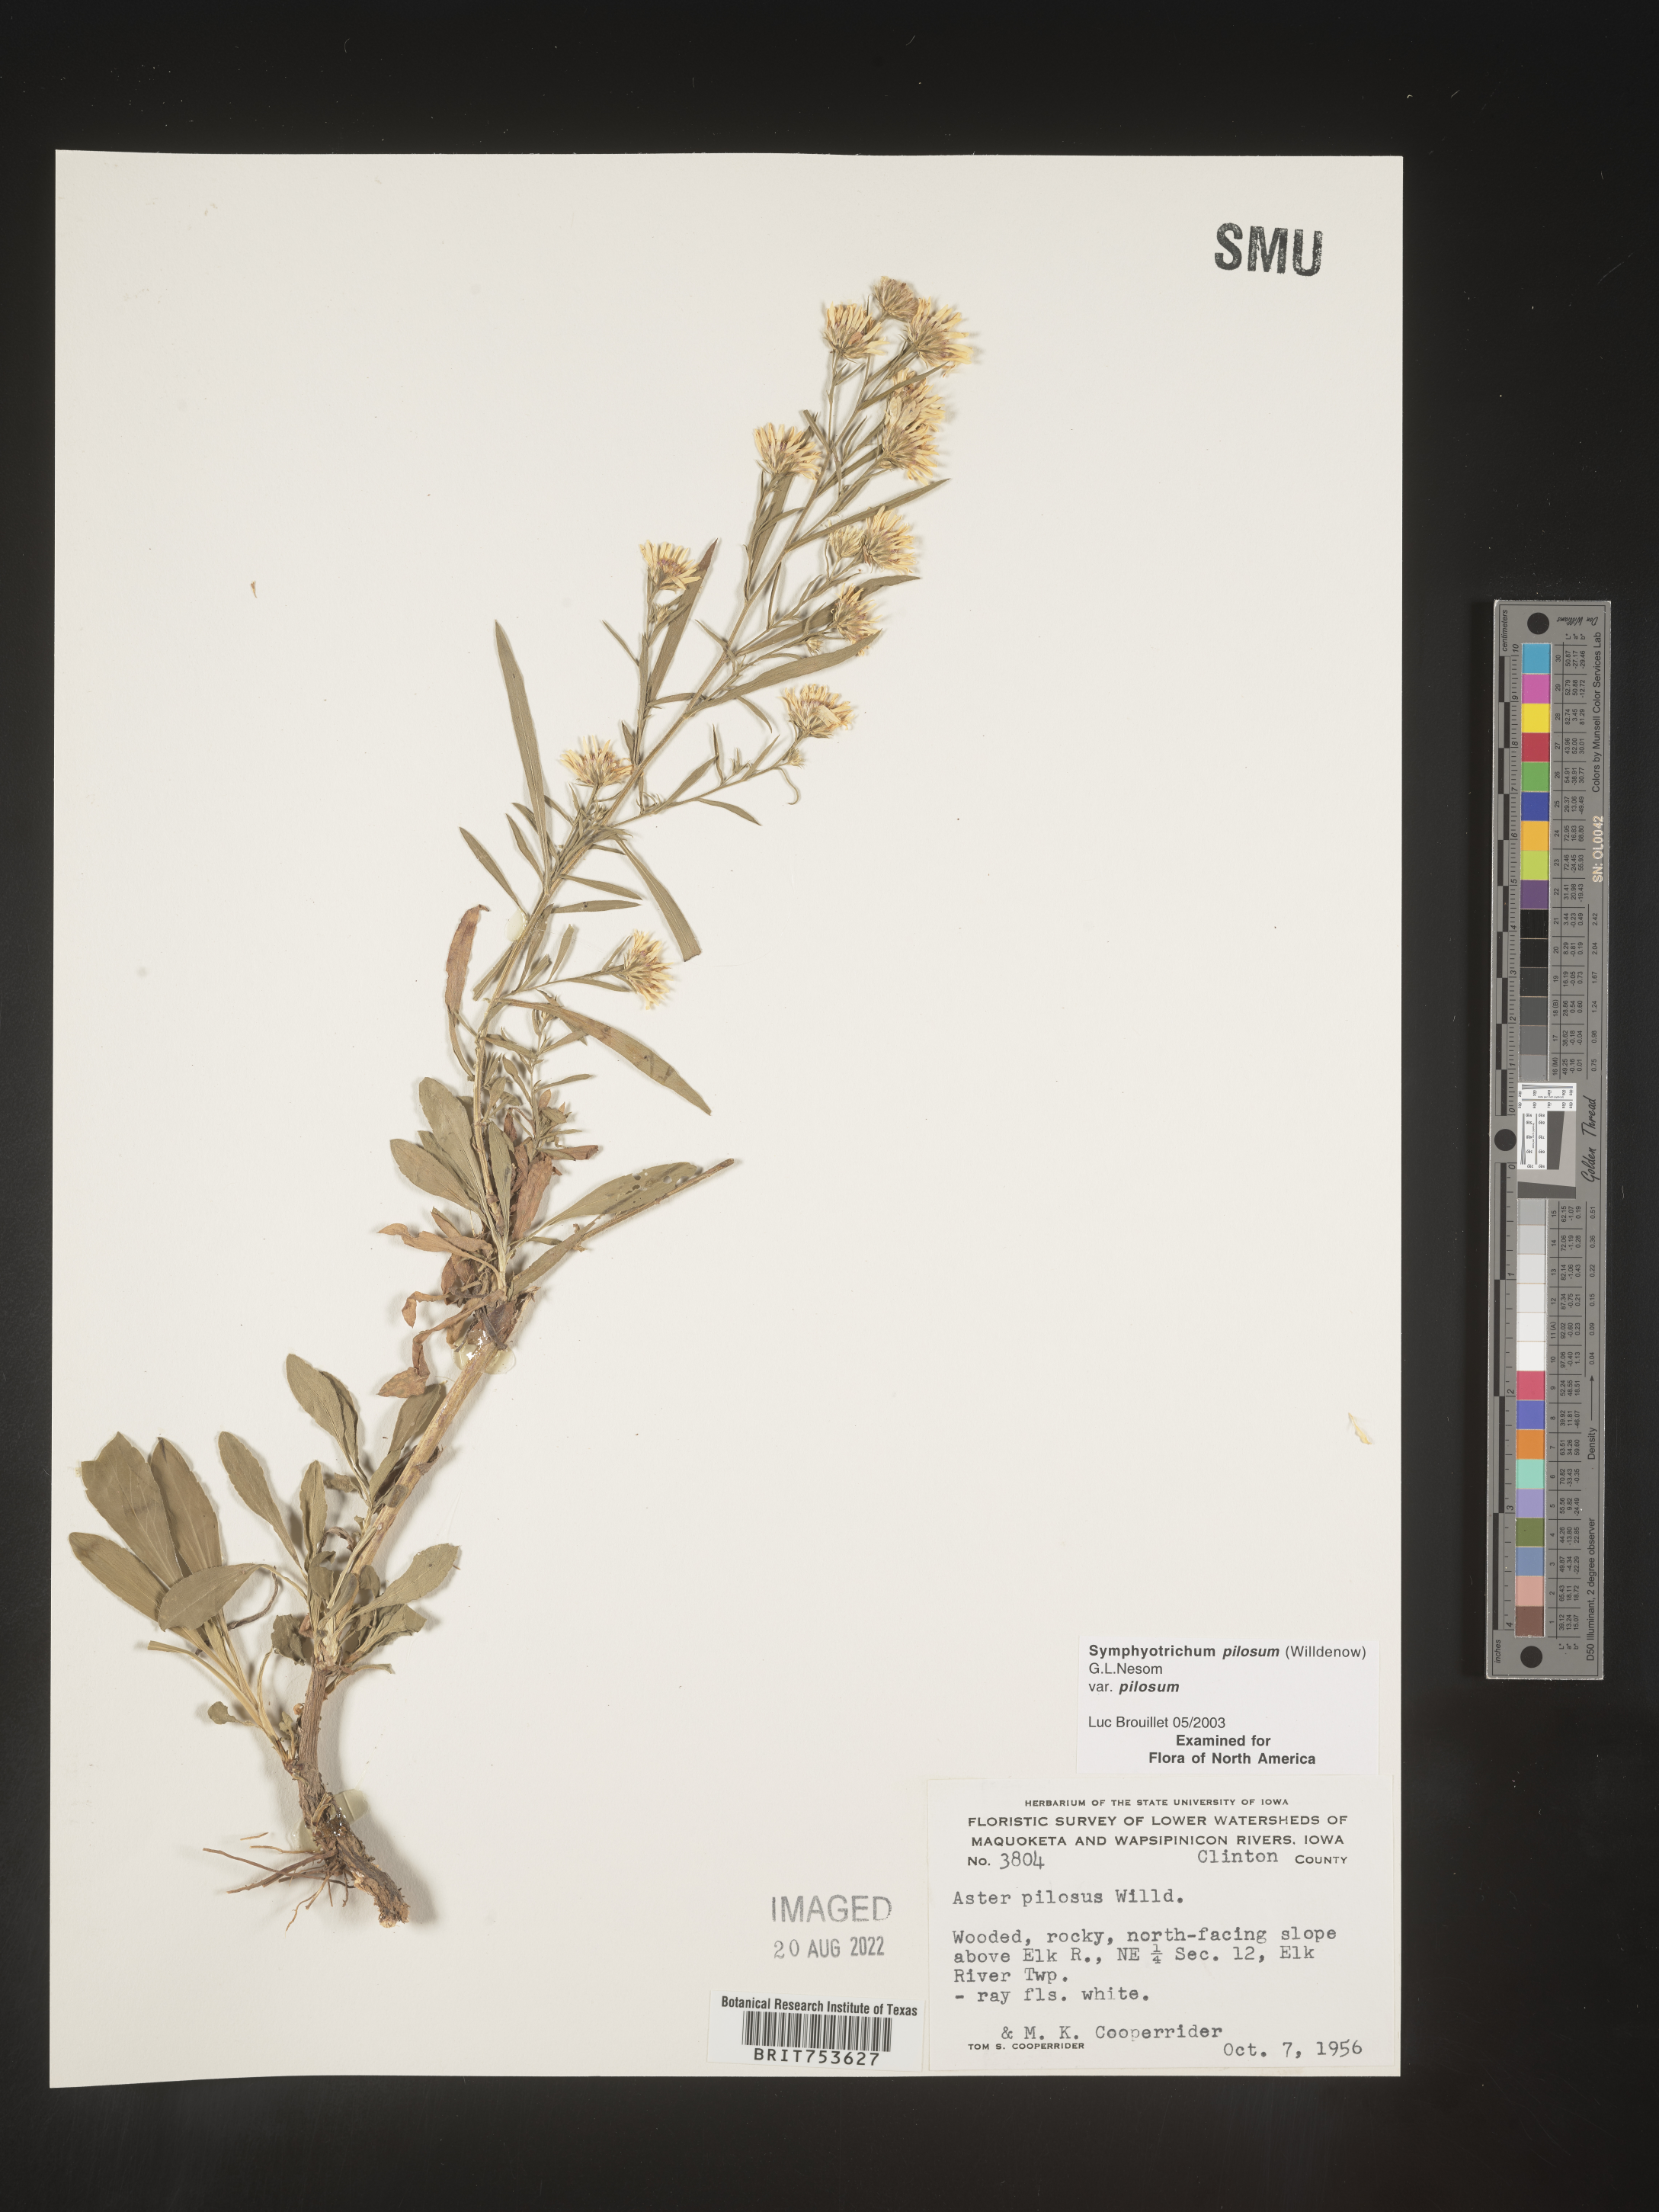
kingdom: Plantae
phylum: Tracheophyta
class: Magnoliopsida
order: Asterales
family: Asteraceae
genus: Symphyotrichum
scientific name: Symphyotrichum pilosum
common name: Awl aster
